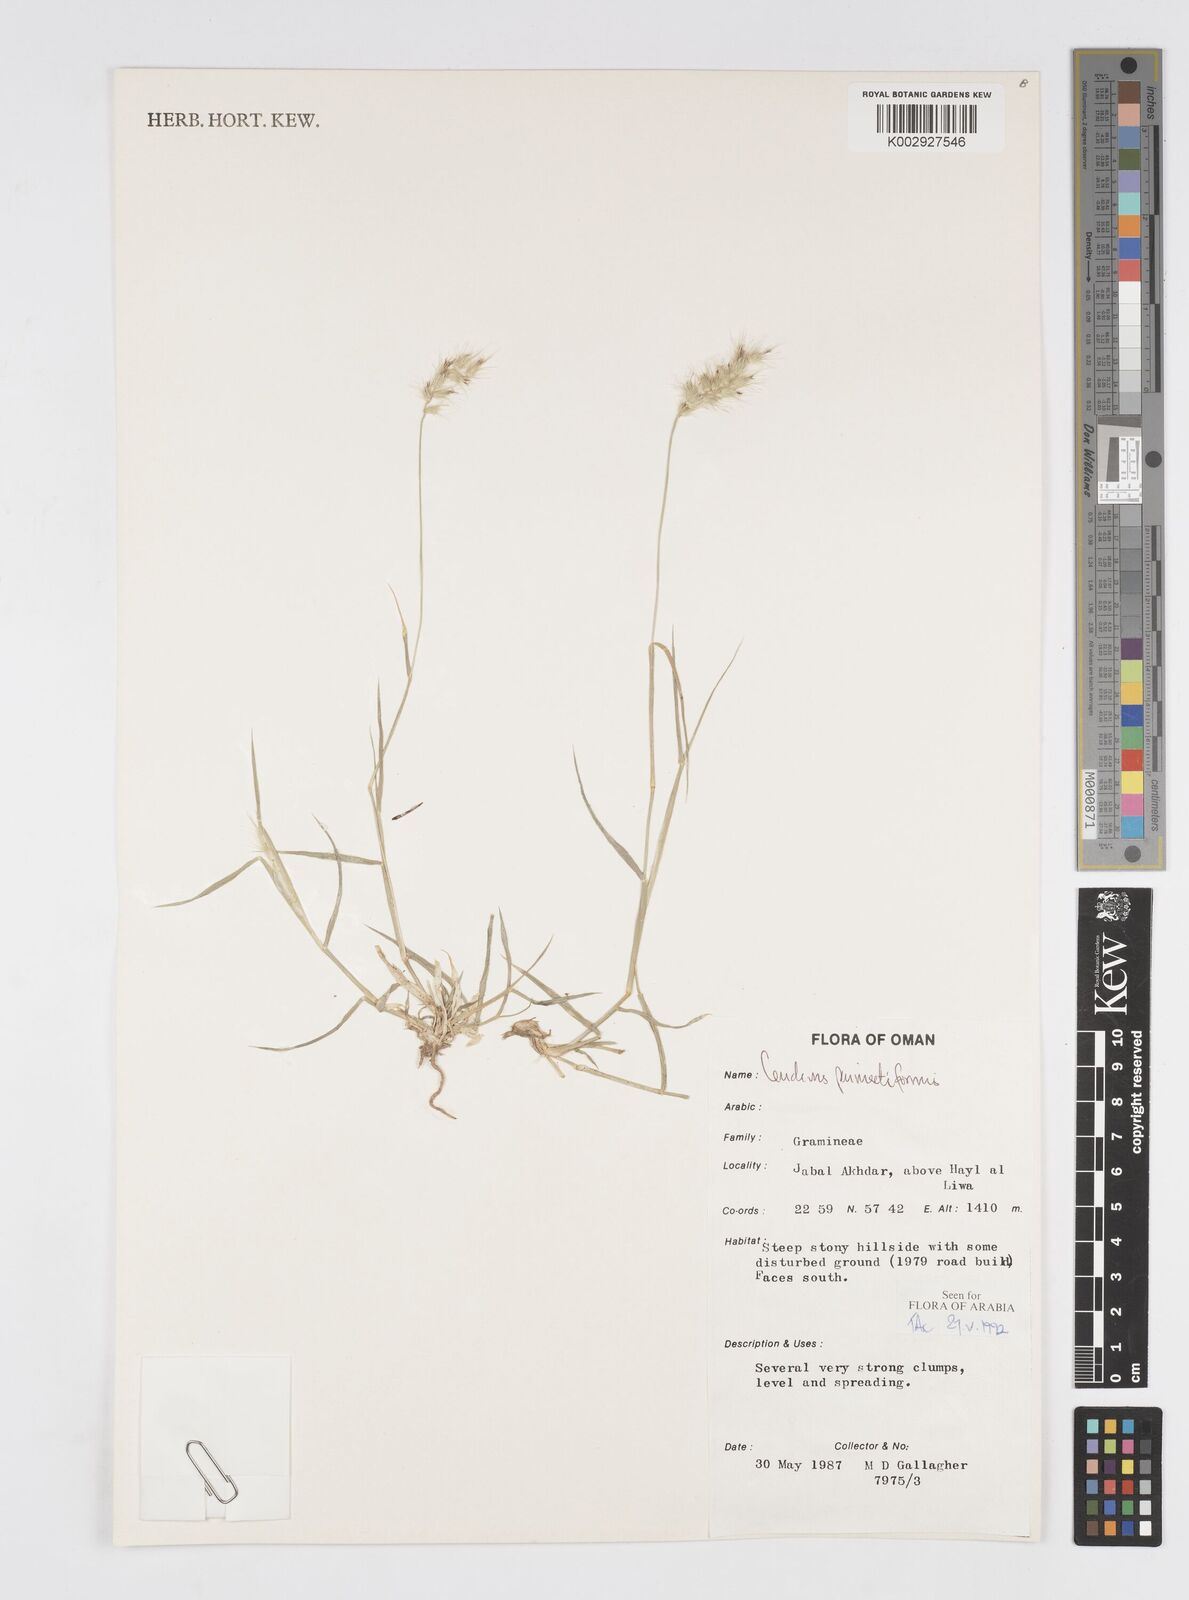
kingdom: Plantae
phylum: Tracheophyta
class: Liliopsida
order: Poales
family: Poaceae
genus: Cenchrus
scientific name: Cenchrus pennisetiformis
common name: Cloncurry
